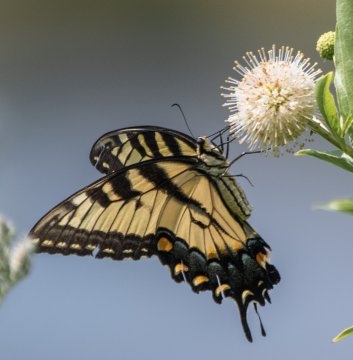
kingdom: Animalia
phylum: Arthropoda
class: Insecta
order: Lepidoptera
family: Papilionidae
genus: Pterourus
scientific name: Pterourus glaucus
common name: Eastern Tiger Swallowtail
